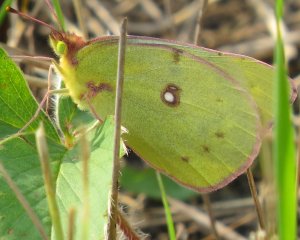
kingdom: Animalia
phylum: Arthropoda
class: Insecta
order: Lepidoptera
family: Pieridae
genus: Colias
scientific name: Colias philodice
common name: Clouded Sulphur
